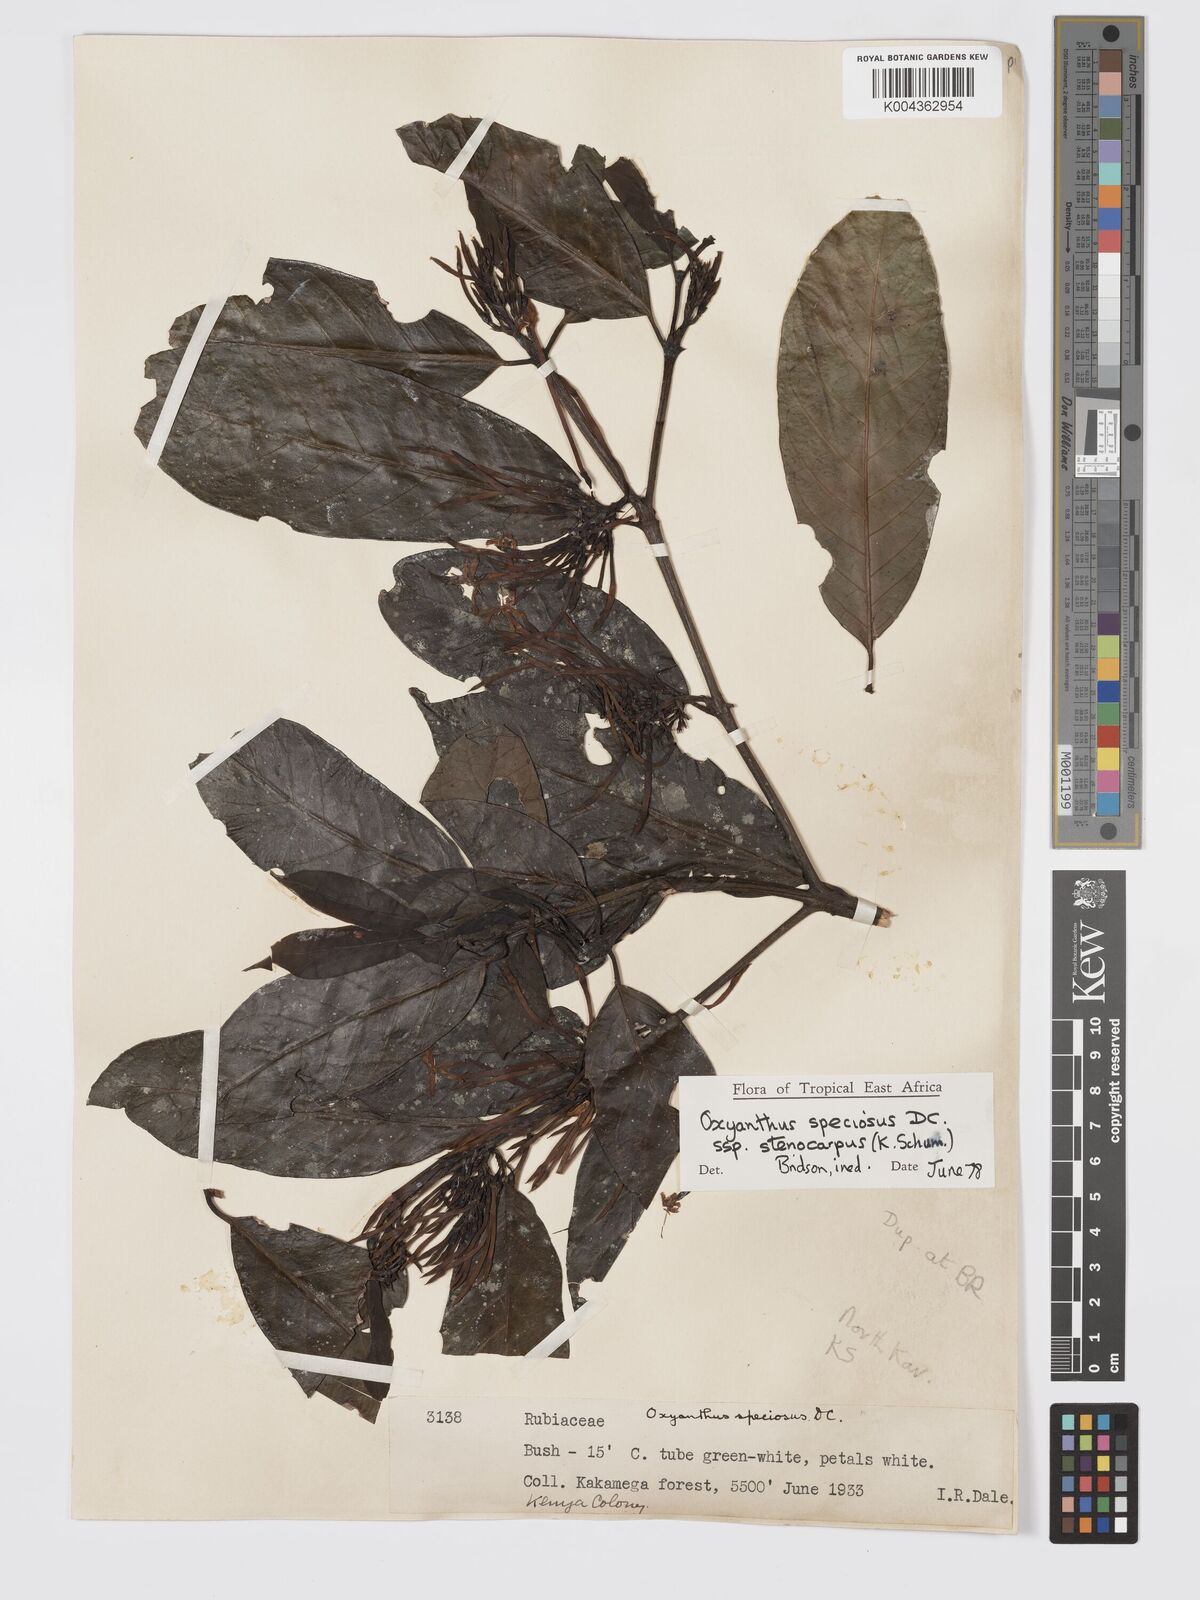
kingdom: Plantae
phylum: Tracheophyta
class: Magnoliopsida
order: Gentianales
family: Rubiaceae
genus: Oxyanthus
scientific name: Oxyanthus speciosus
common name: Whipstick loquat
